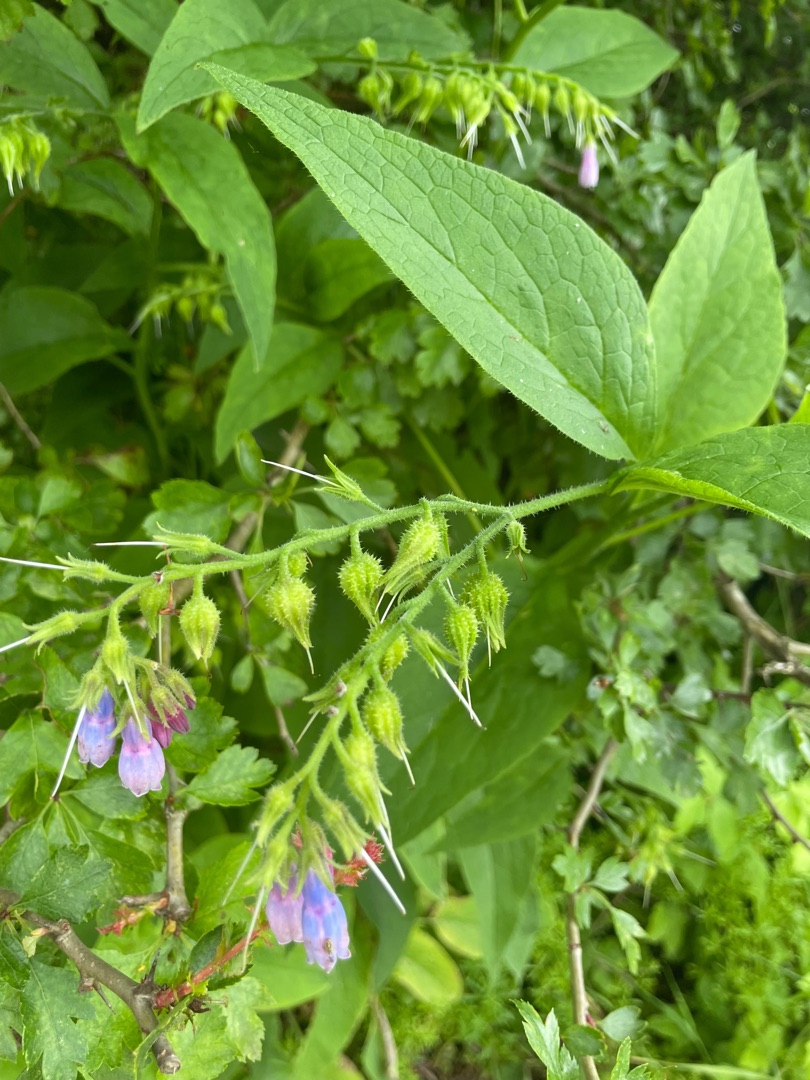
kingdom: Plantae
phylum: Tracheophyta
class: Magnoliopsida
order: Boraginales
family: Boraginaceae
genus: Symphytum
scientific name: Symphytum uplandicum
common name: Foder-kulsukker
